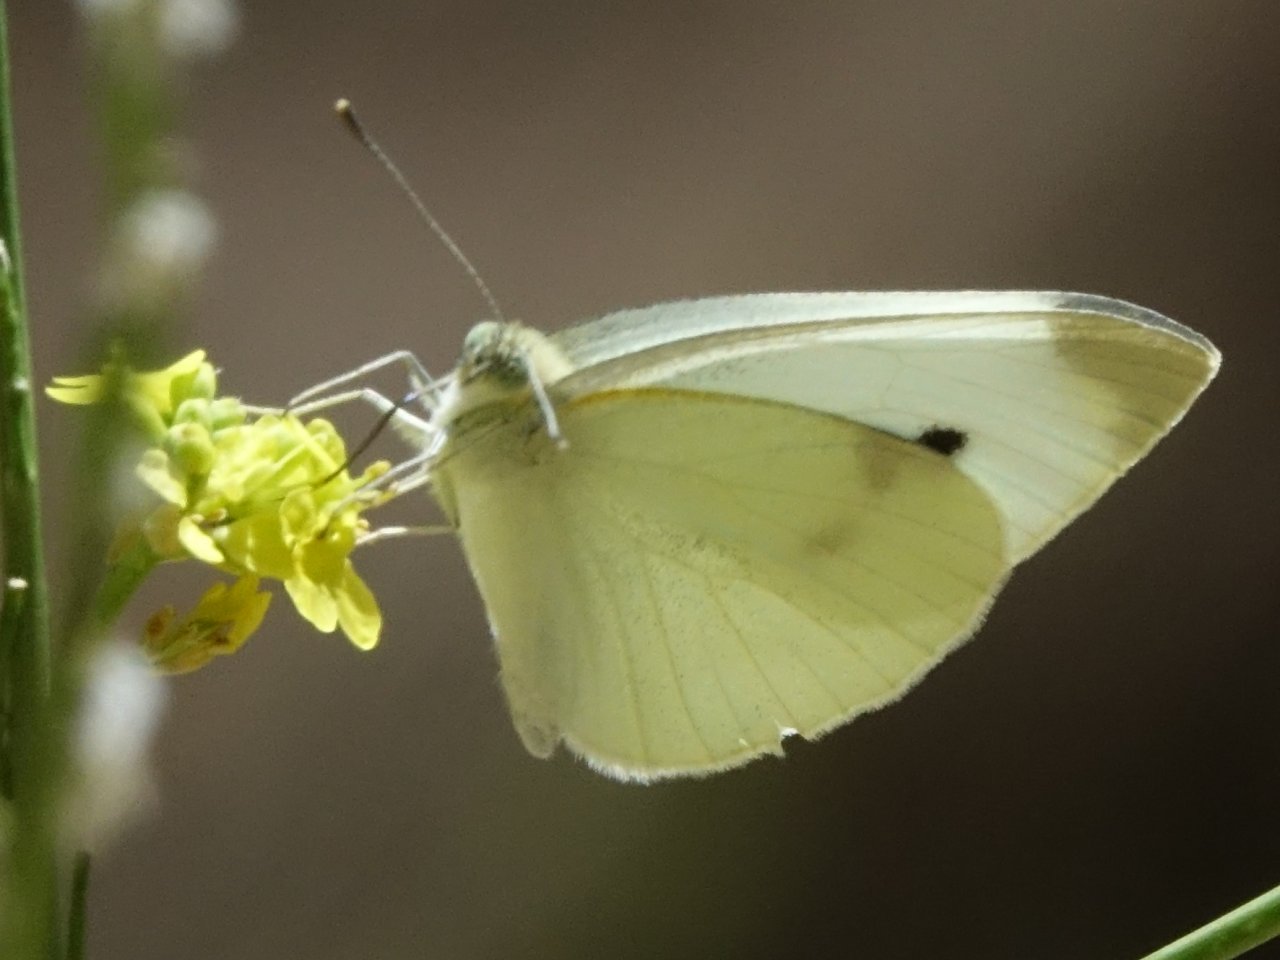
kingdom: Animalia
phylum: Arthropoda
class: Insecta
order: Lepidoptera
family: Pieridae
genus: Pieris
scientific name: Pieris rapae
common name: Cabbage White
